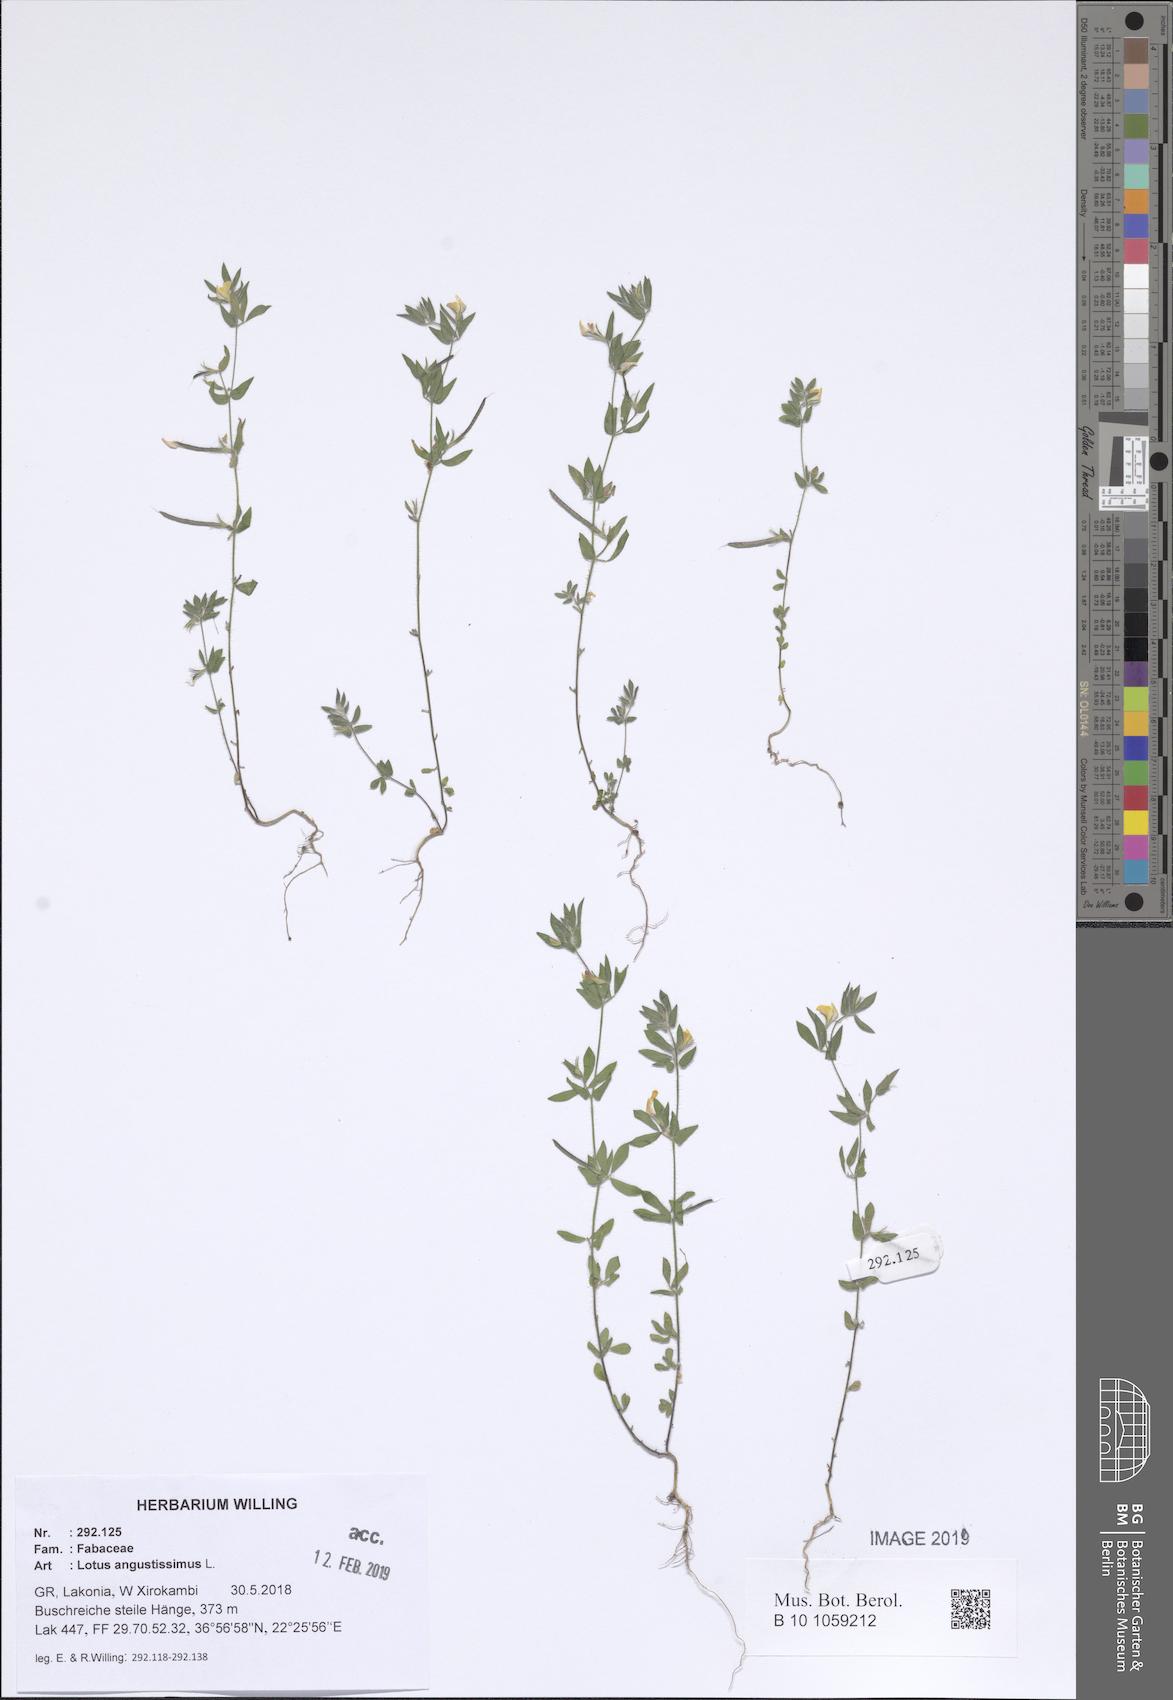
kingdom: Plantae
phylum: Tracheophyta
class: Magnoliopsida
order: Fabales
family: Fabaceae
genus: Lotus
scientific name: Lotus angustissimus
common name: Slender bird's-foot trefoil
